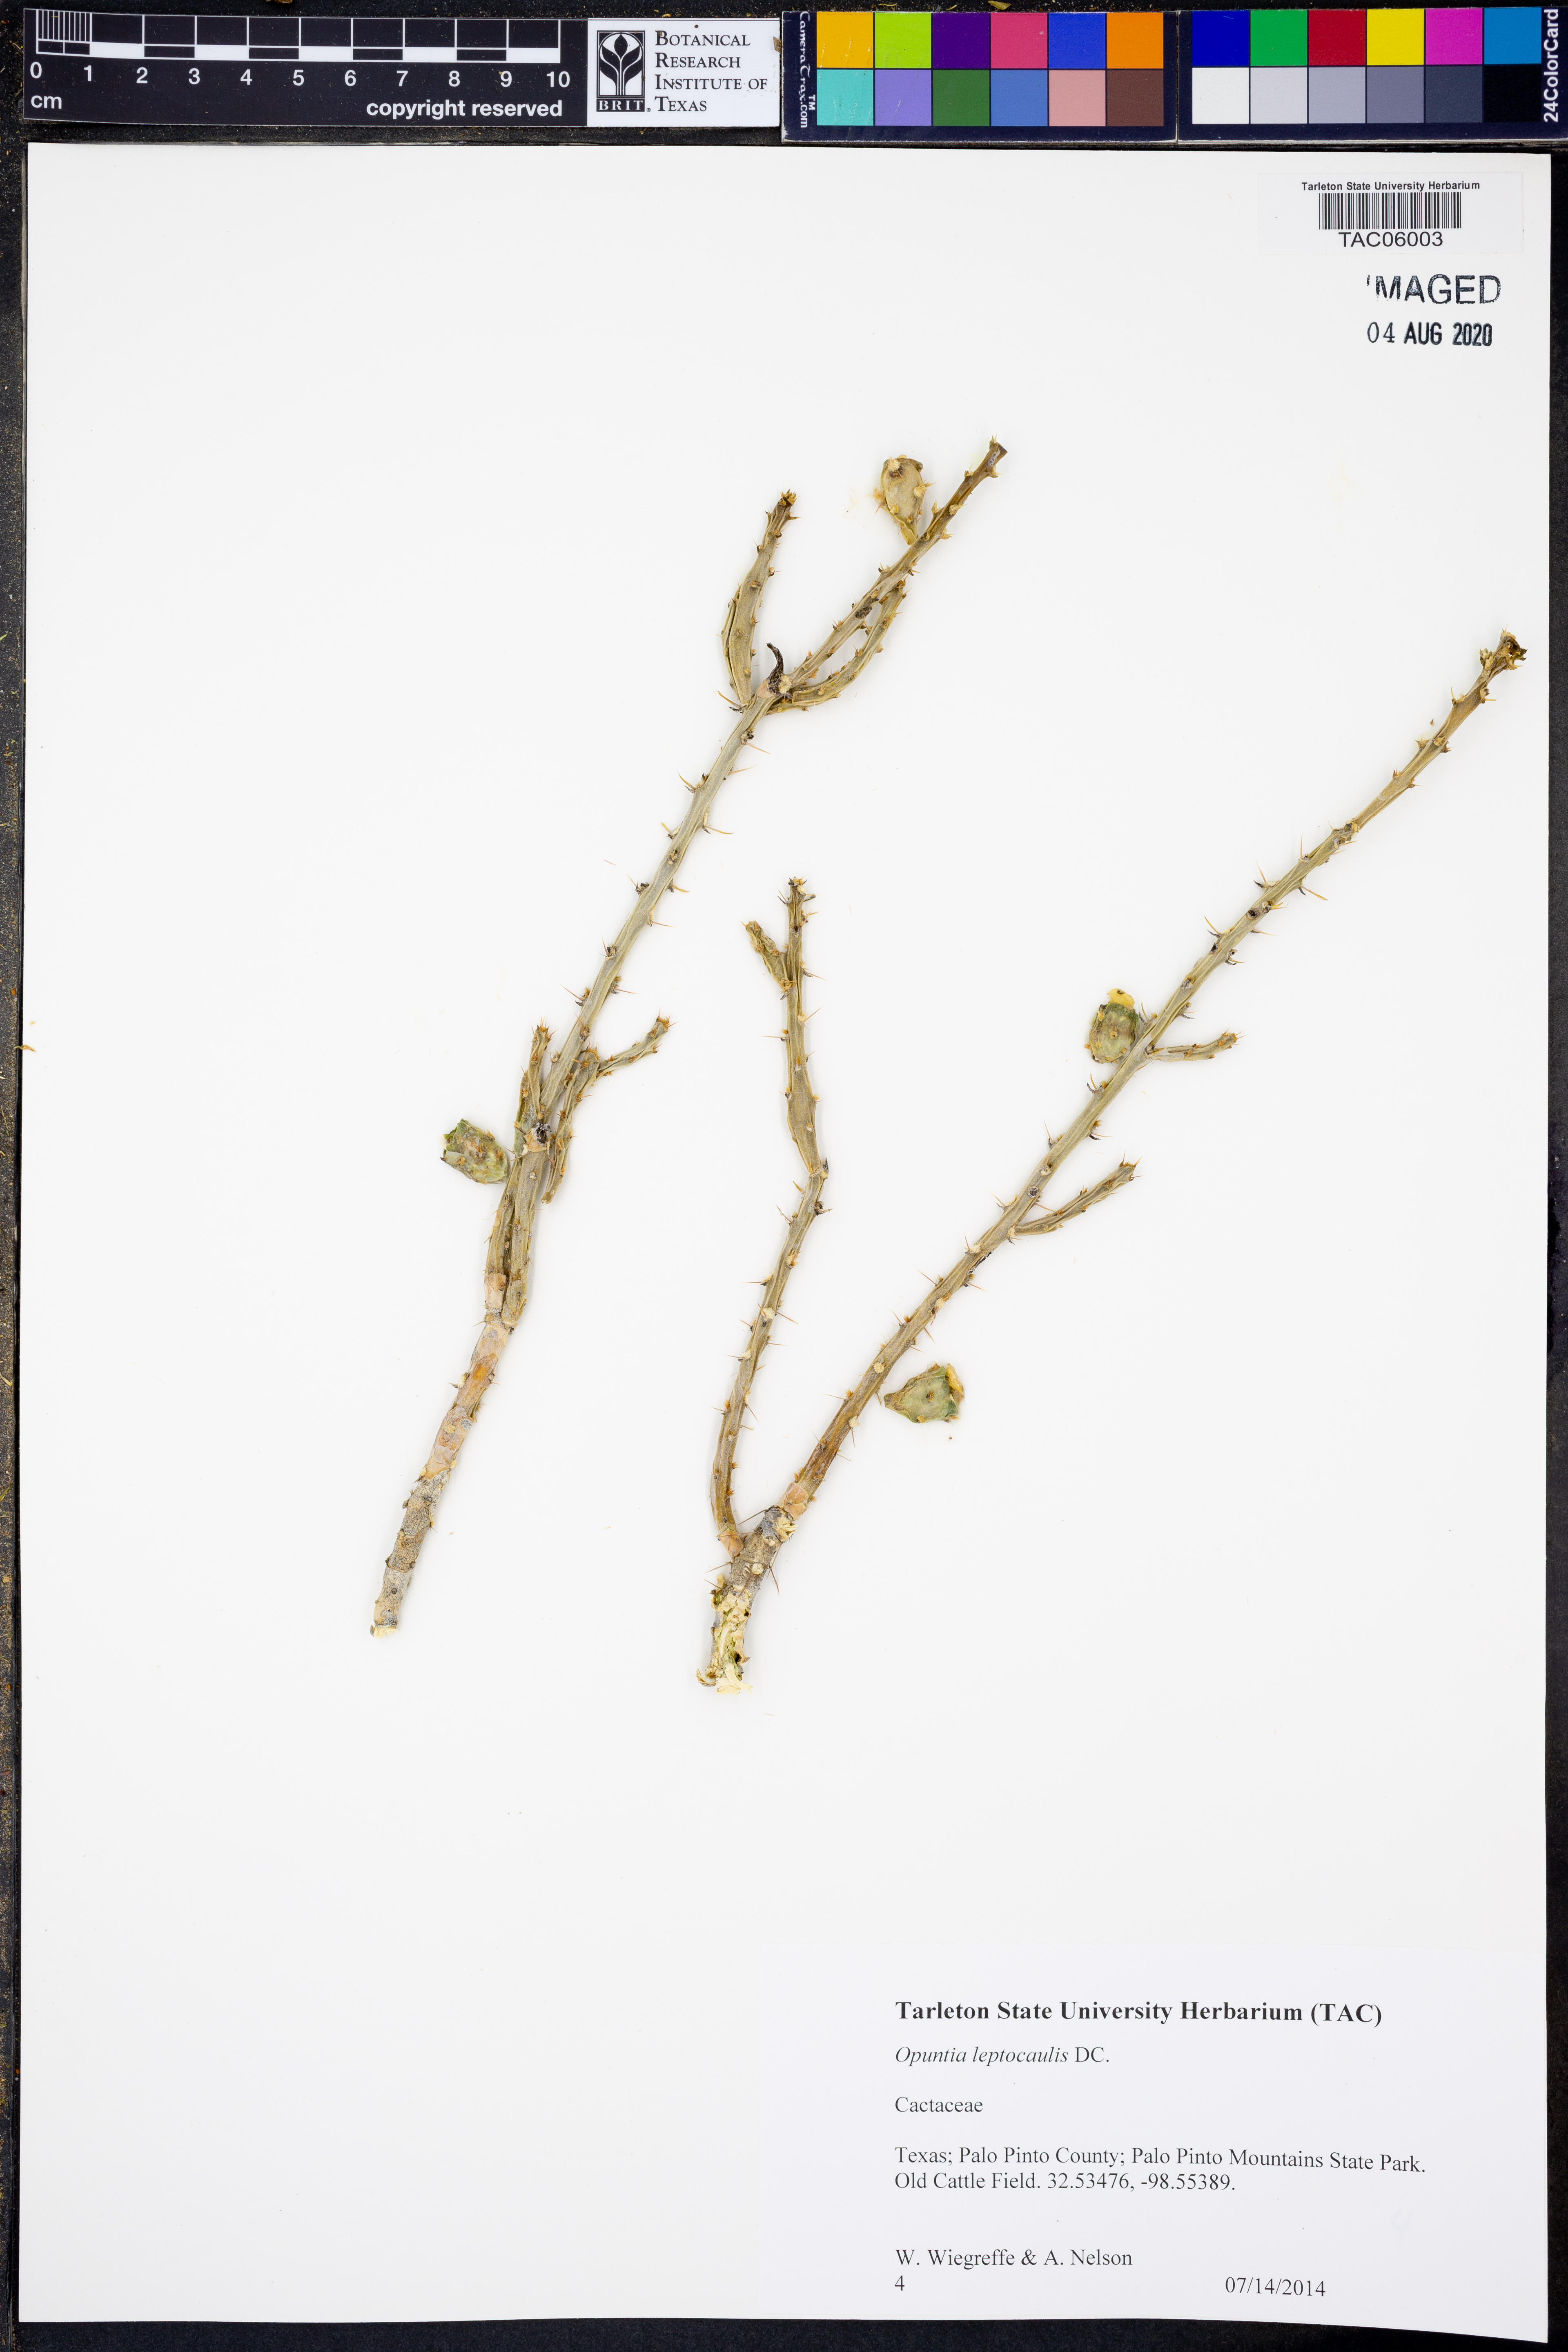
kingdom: Plantae
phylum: Tracheophyta
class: Magnoliopsida
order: Caryophyllales
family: Cactaceae
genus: Cylindropuntia
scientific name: Cylindropuntia leptocaulis
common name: Christmas cactus
